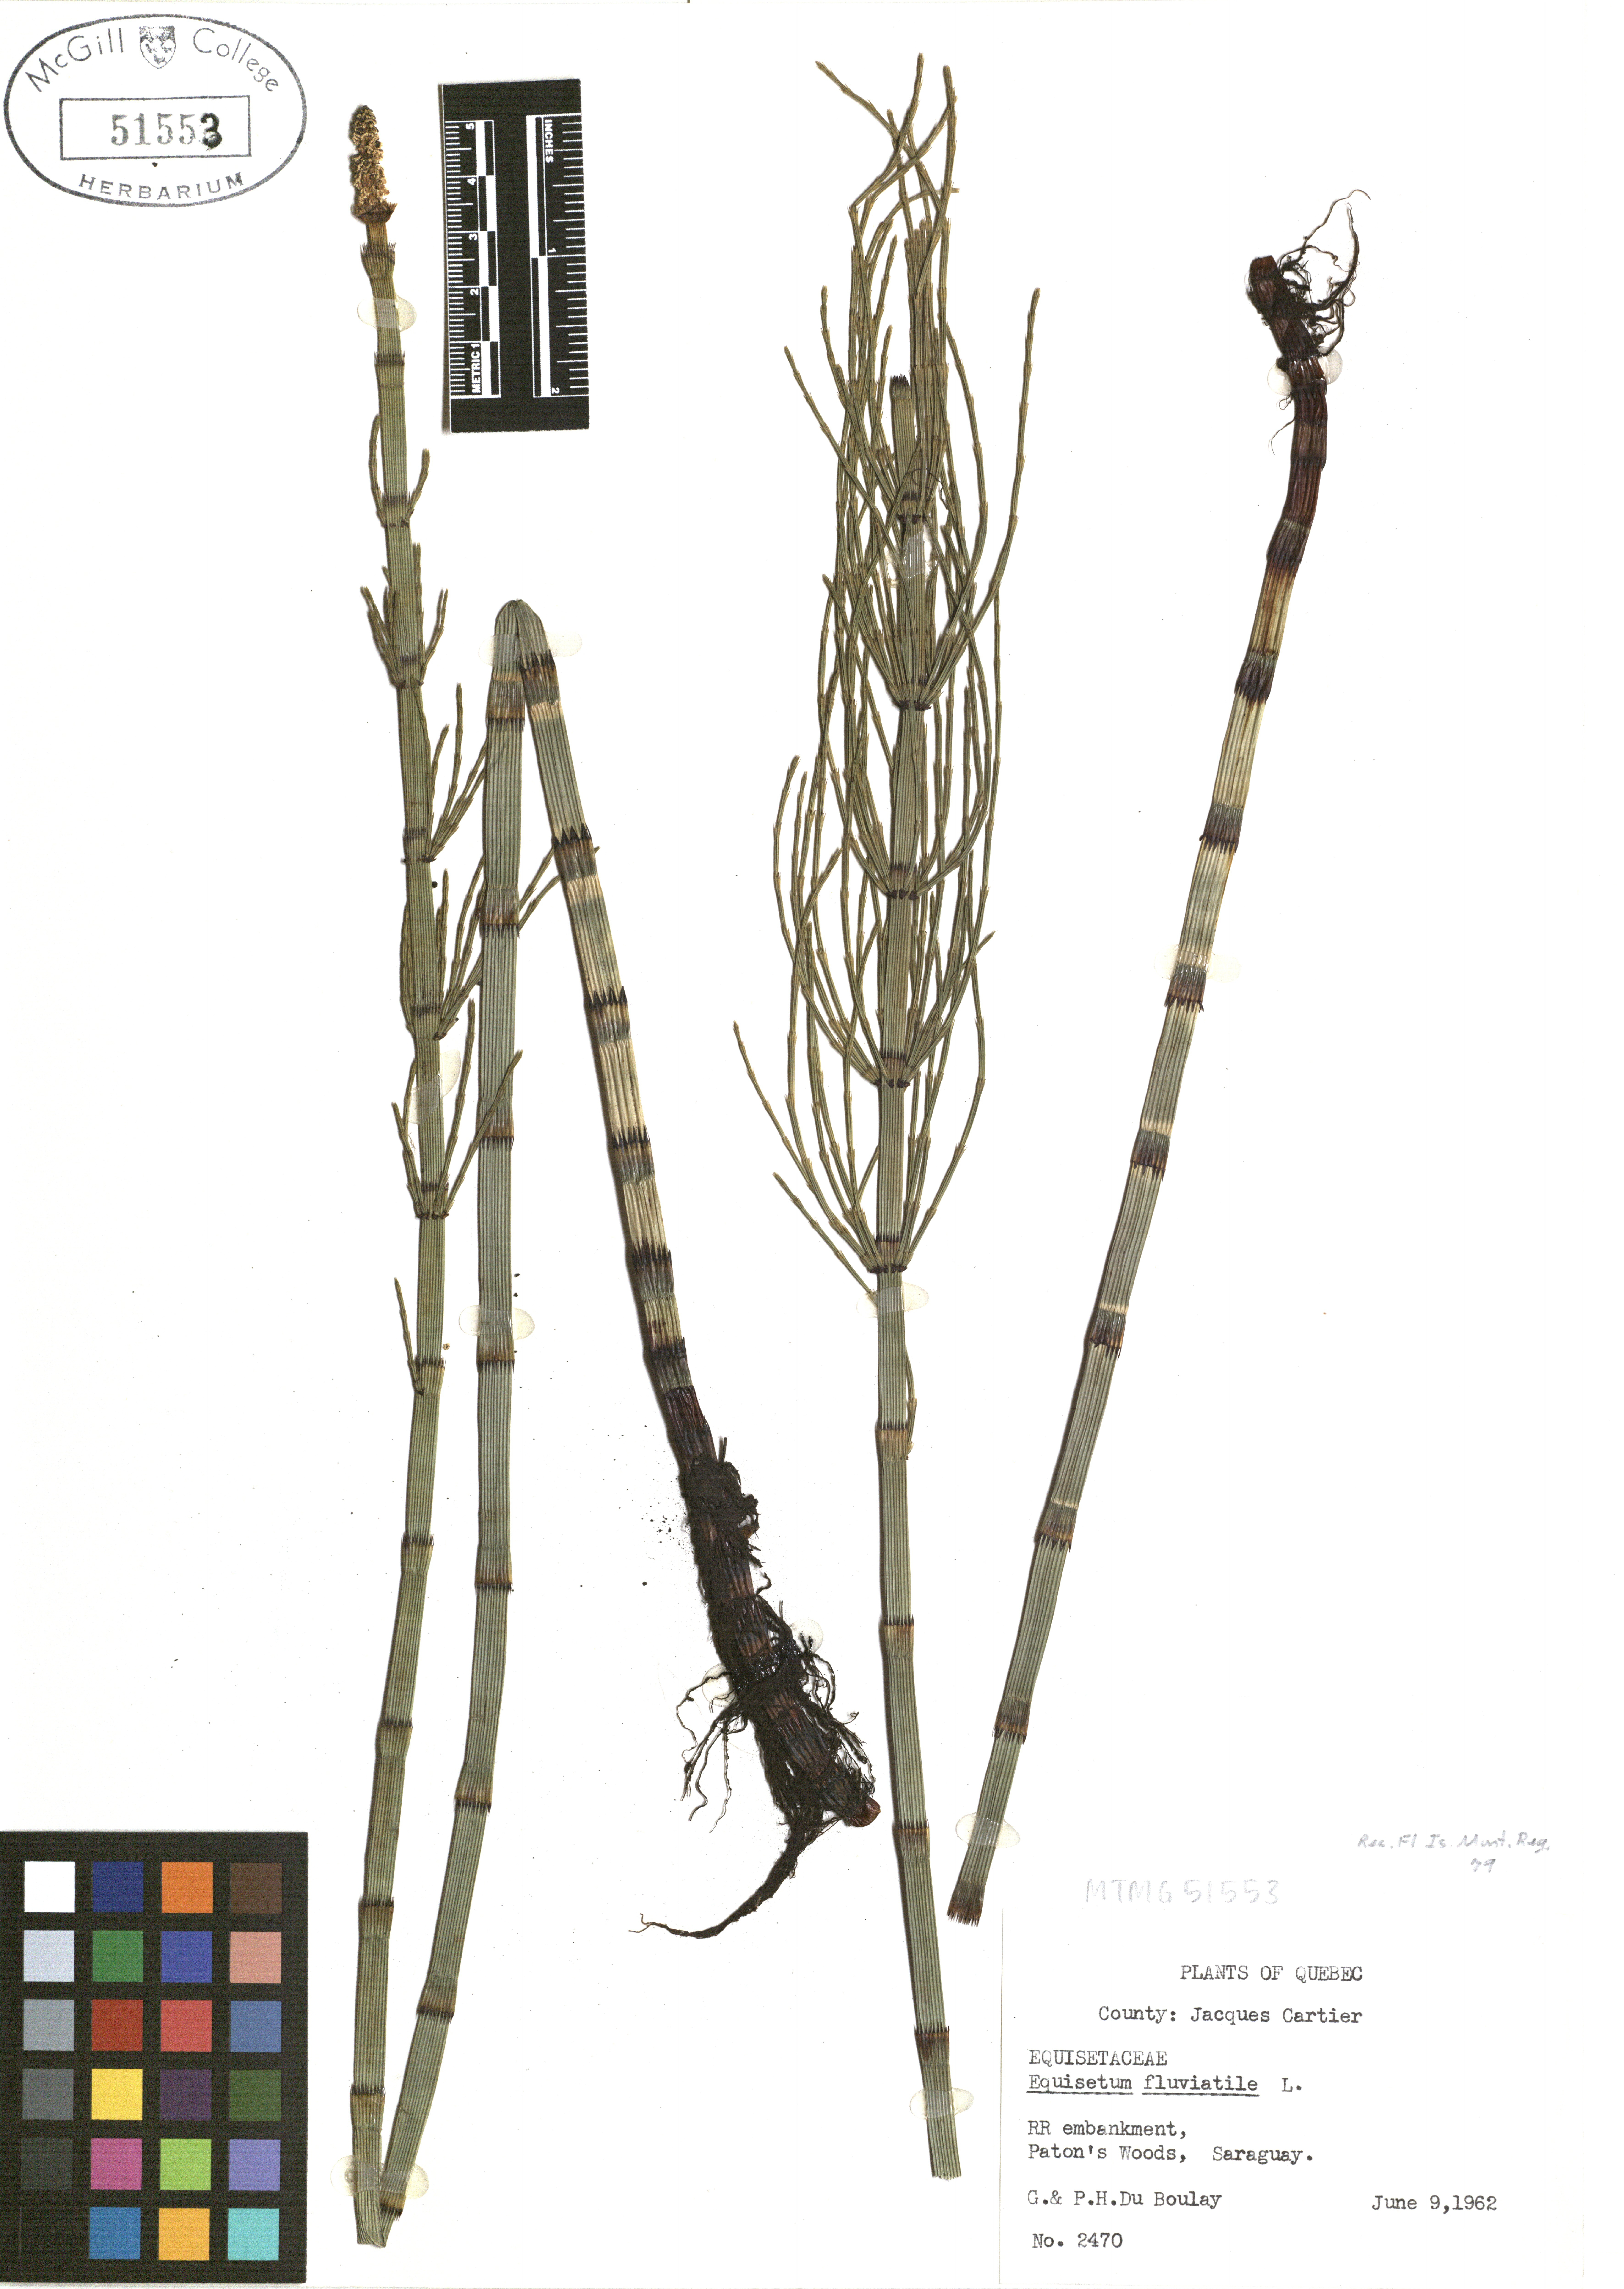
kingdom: Plantae
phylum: Tracheophyta
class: Polypodiopsida
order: Equisetales
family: Equisetaceae
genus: Equisetum
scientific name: Equisetum fluviatile
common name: Water horsetail
